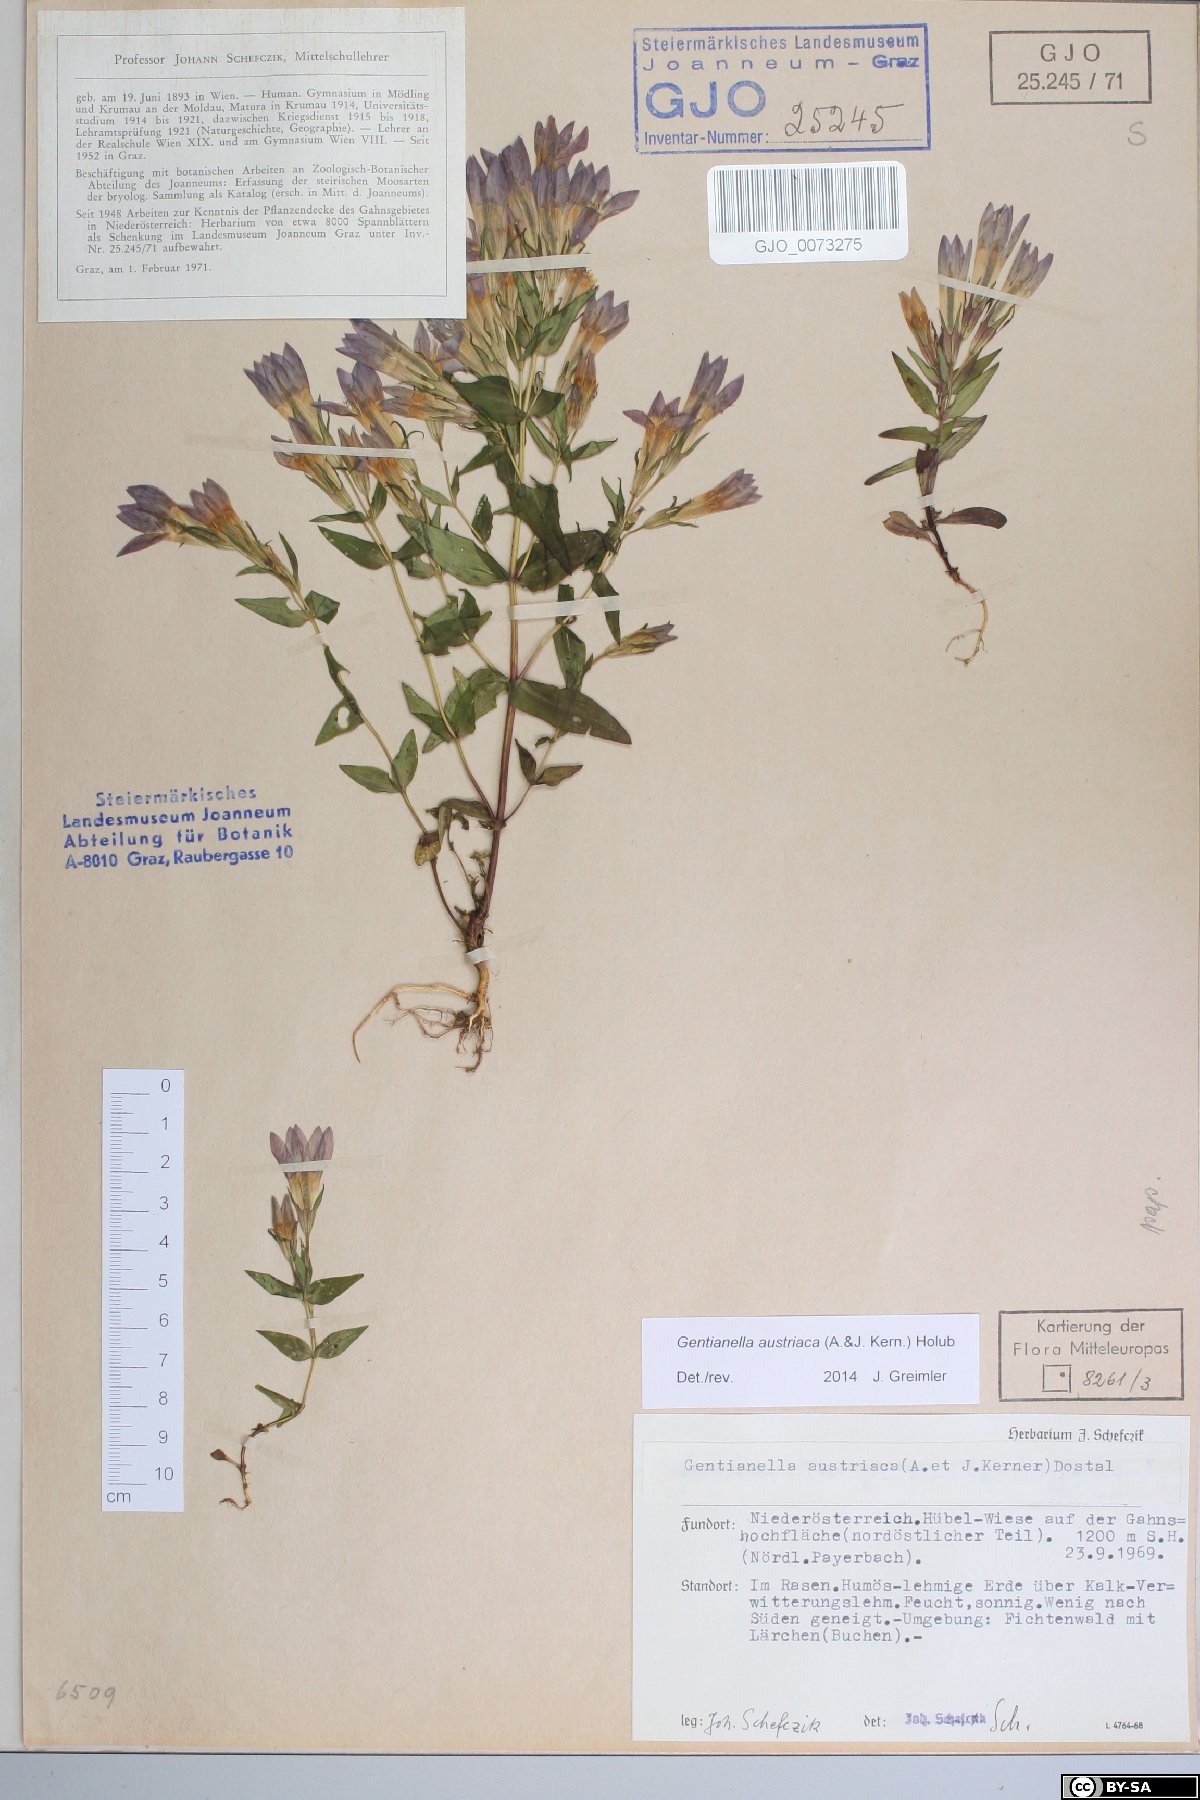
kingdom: Plantae
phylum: Tracheophyta
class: Magnoliopsida
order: Gentianales
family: Gentianaceae
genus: Gentianella
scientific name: Gentianella austriaca
